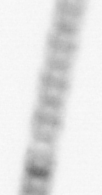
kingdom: Chromista
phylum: Ochrophyta
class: Bacillariophyceae
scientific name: Bacillariophyceae
